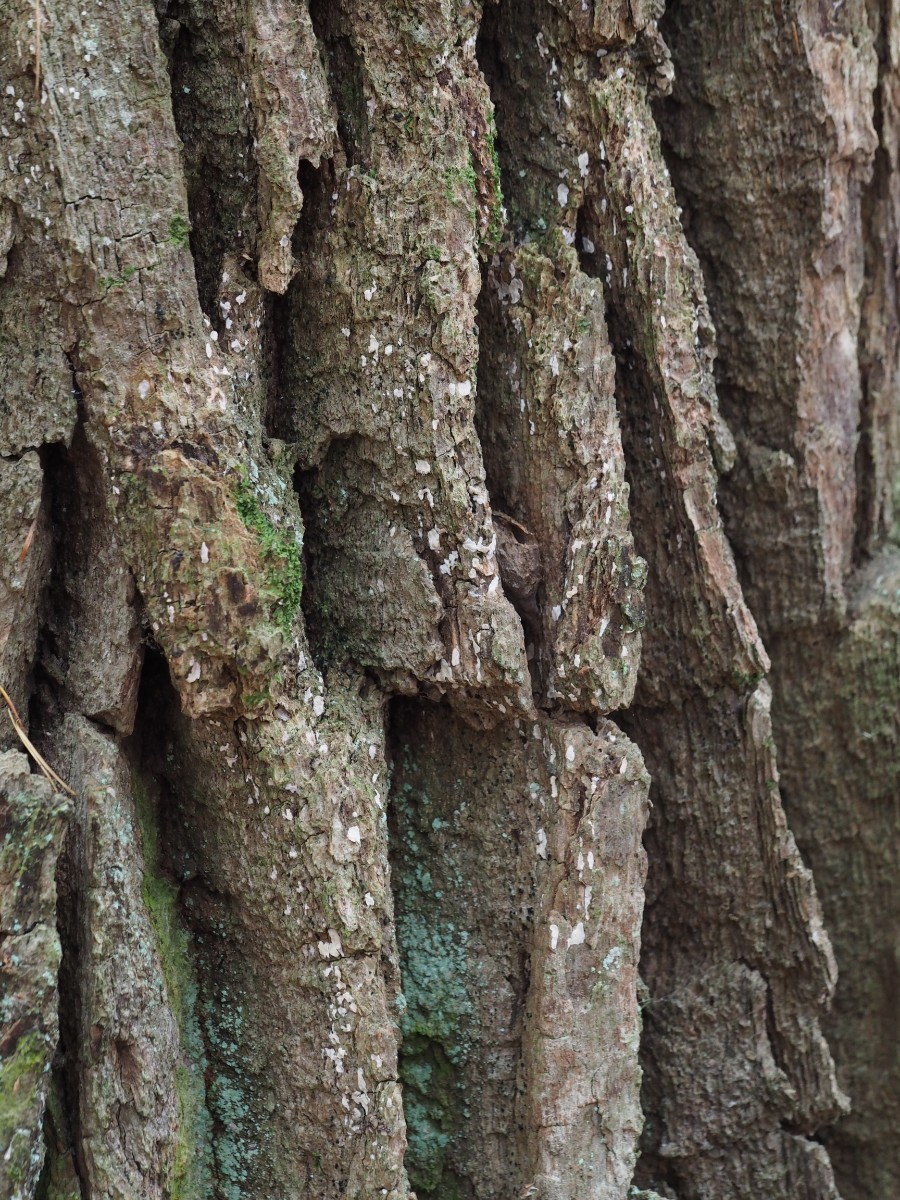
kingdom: Fungi
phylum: Basidiomycota
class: Agaricomycetes
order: Agaricales
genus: Dendrothele
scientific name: Dendrothele commixta
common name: ege-kalkplet
